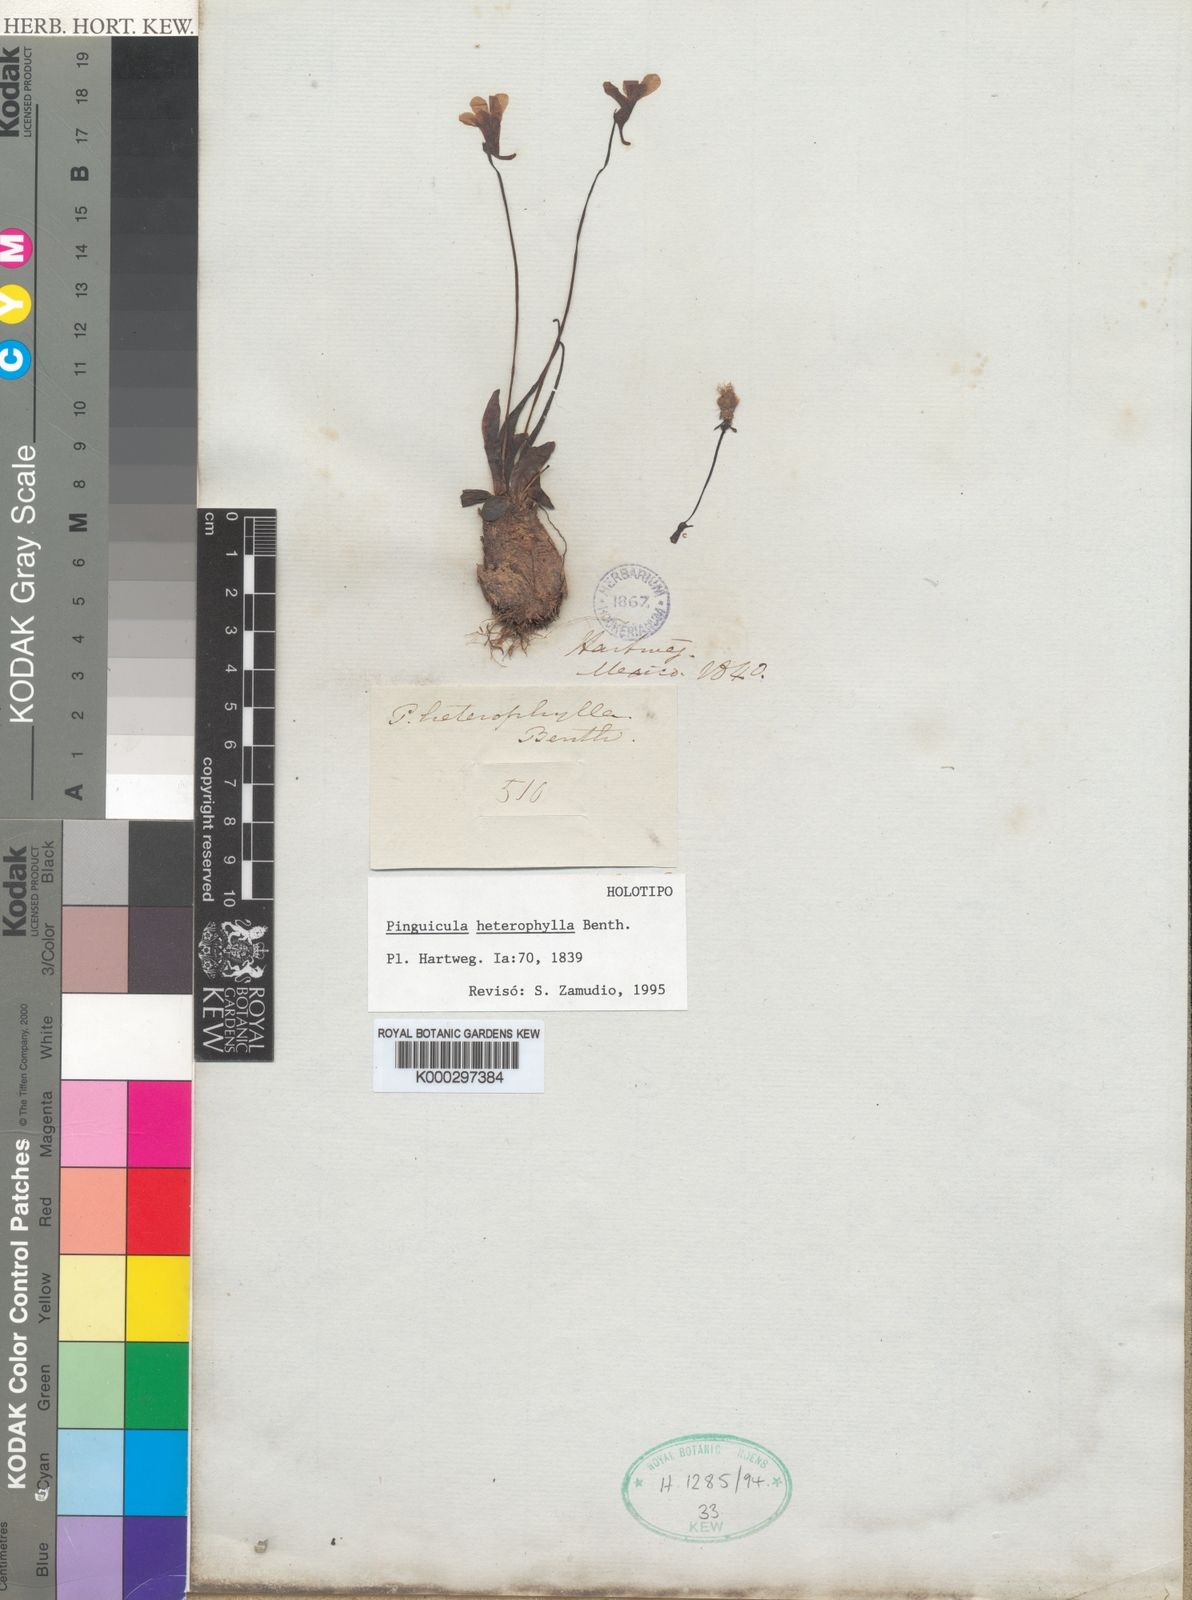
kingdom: Plantae
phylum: Tracheophyta
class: Magnoliopsida
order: Lamiales
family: Lentibulariaceae
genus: Pinguicula
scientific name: Pinguicula heterophylla
